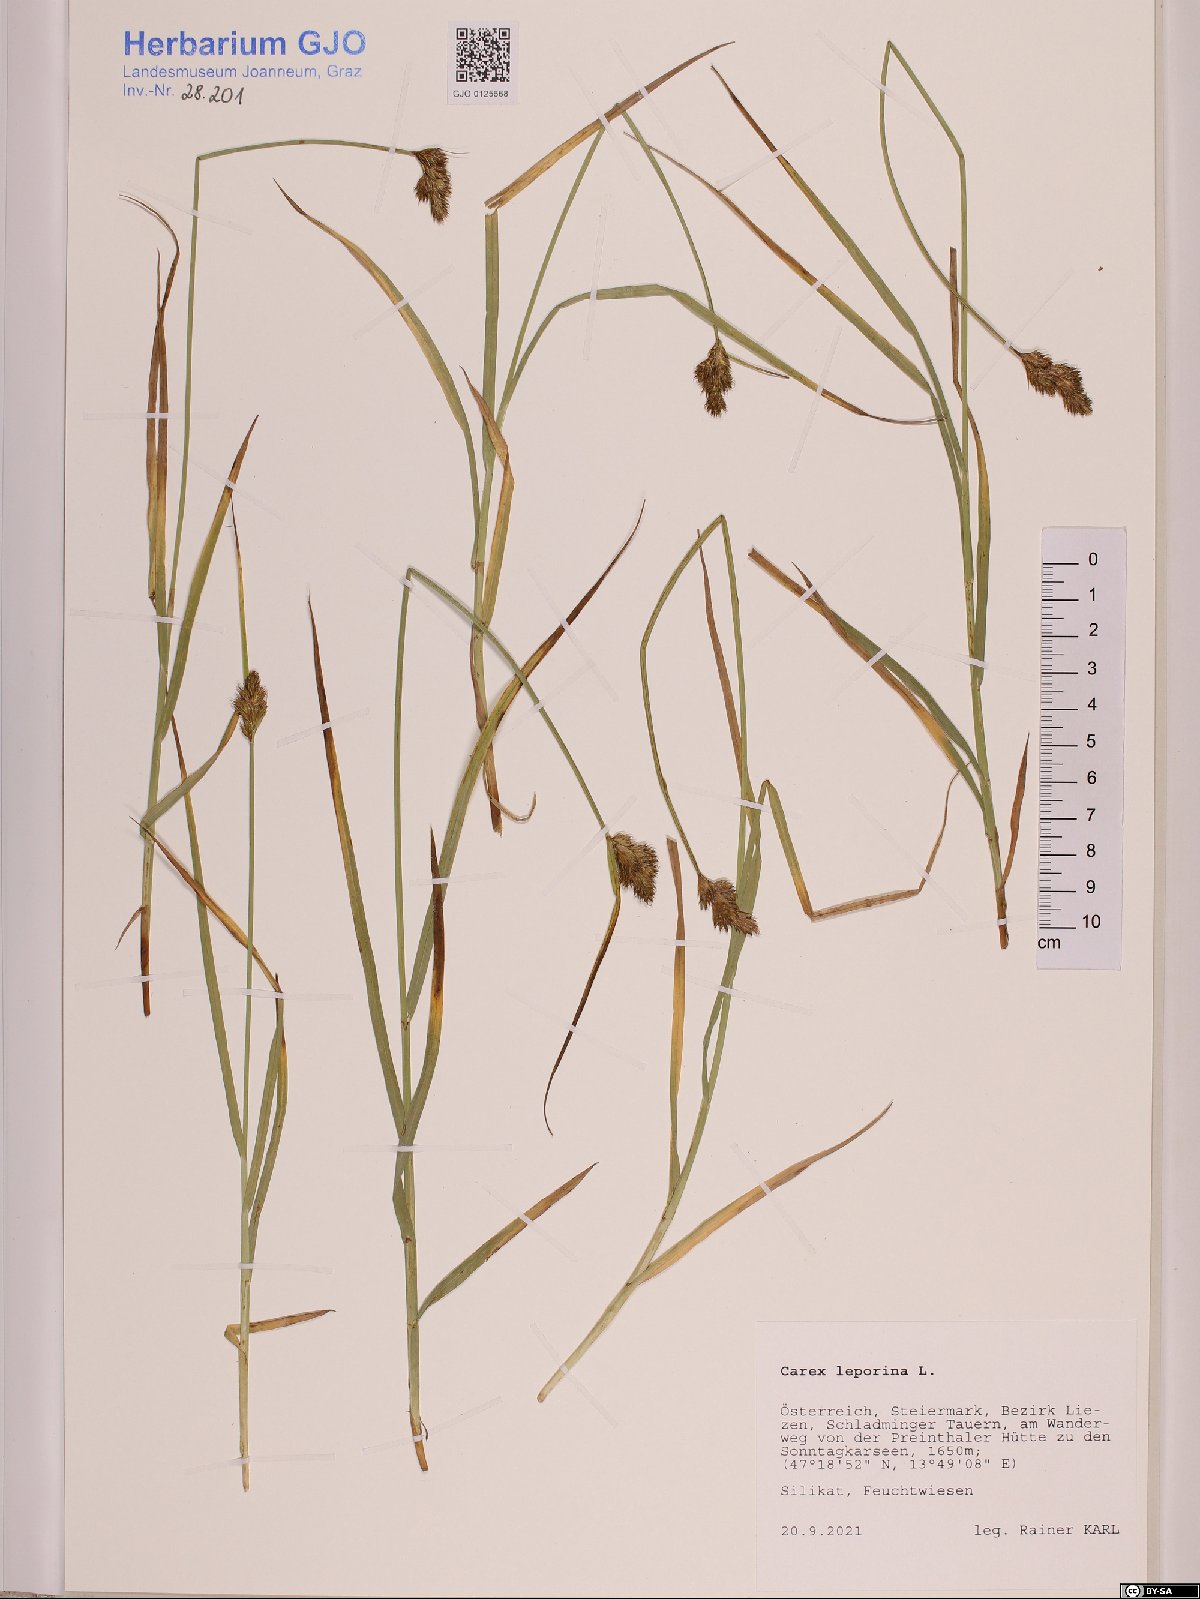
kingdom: Plantae
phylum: Tracheophyta
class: Liliopsida
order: Poales
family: Cyperaceae
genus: Carex
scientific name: Carex leporina
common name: Oval sedge
